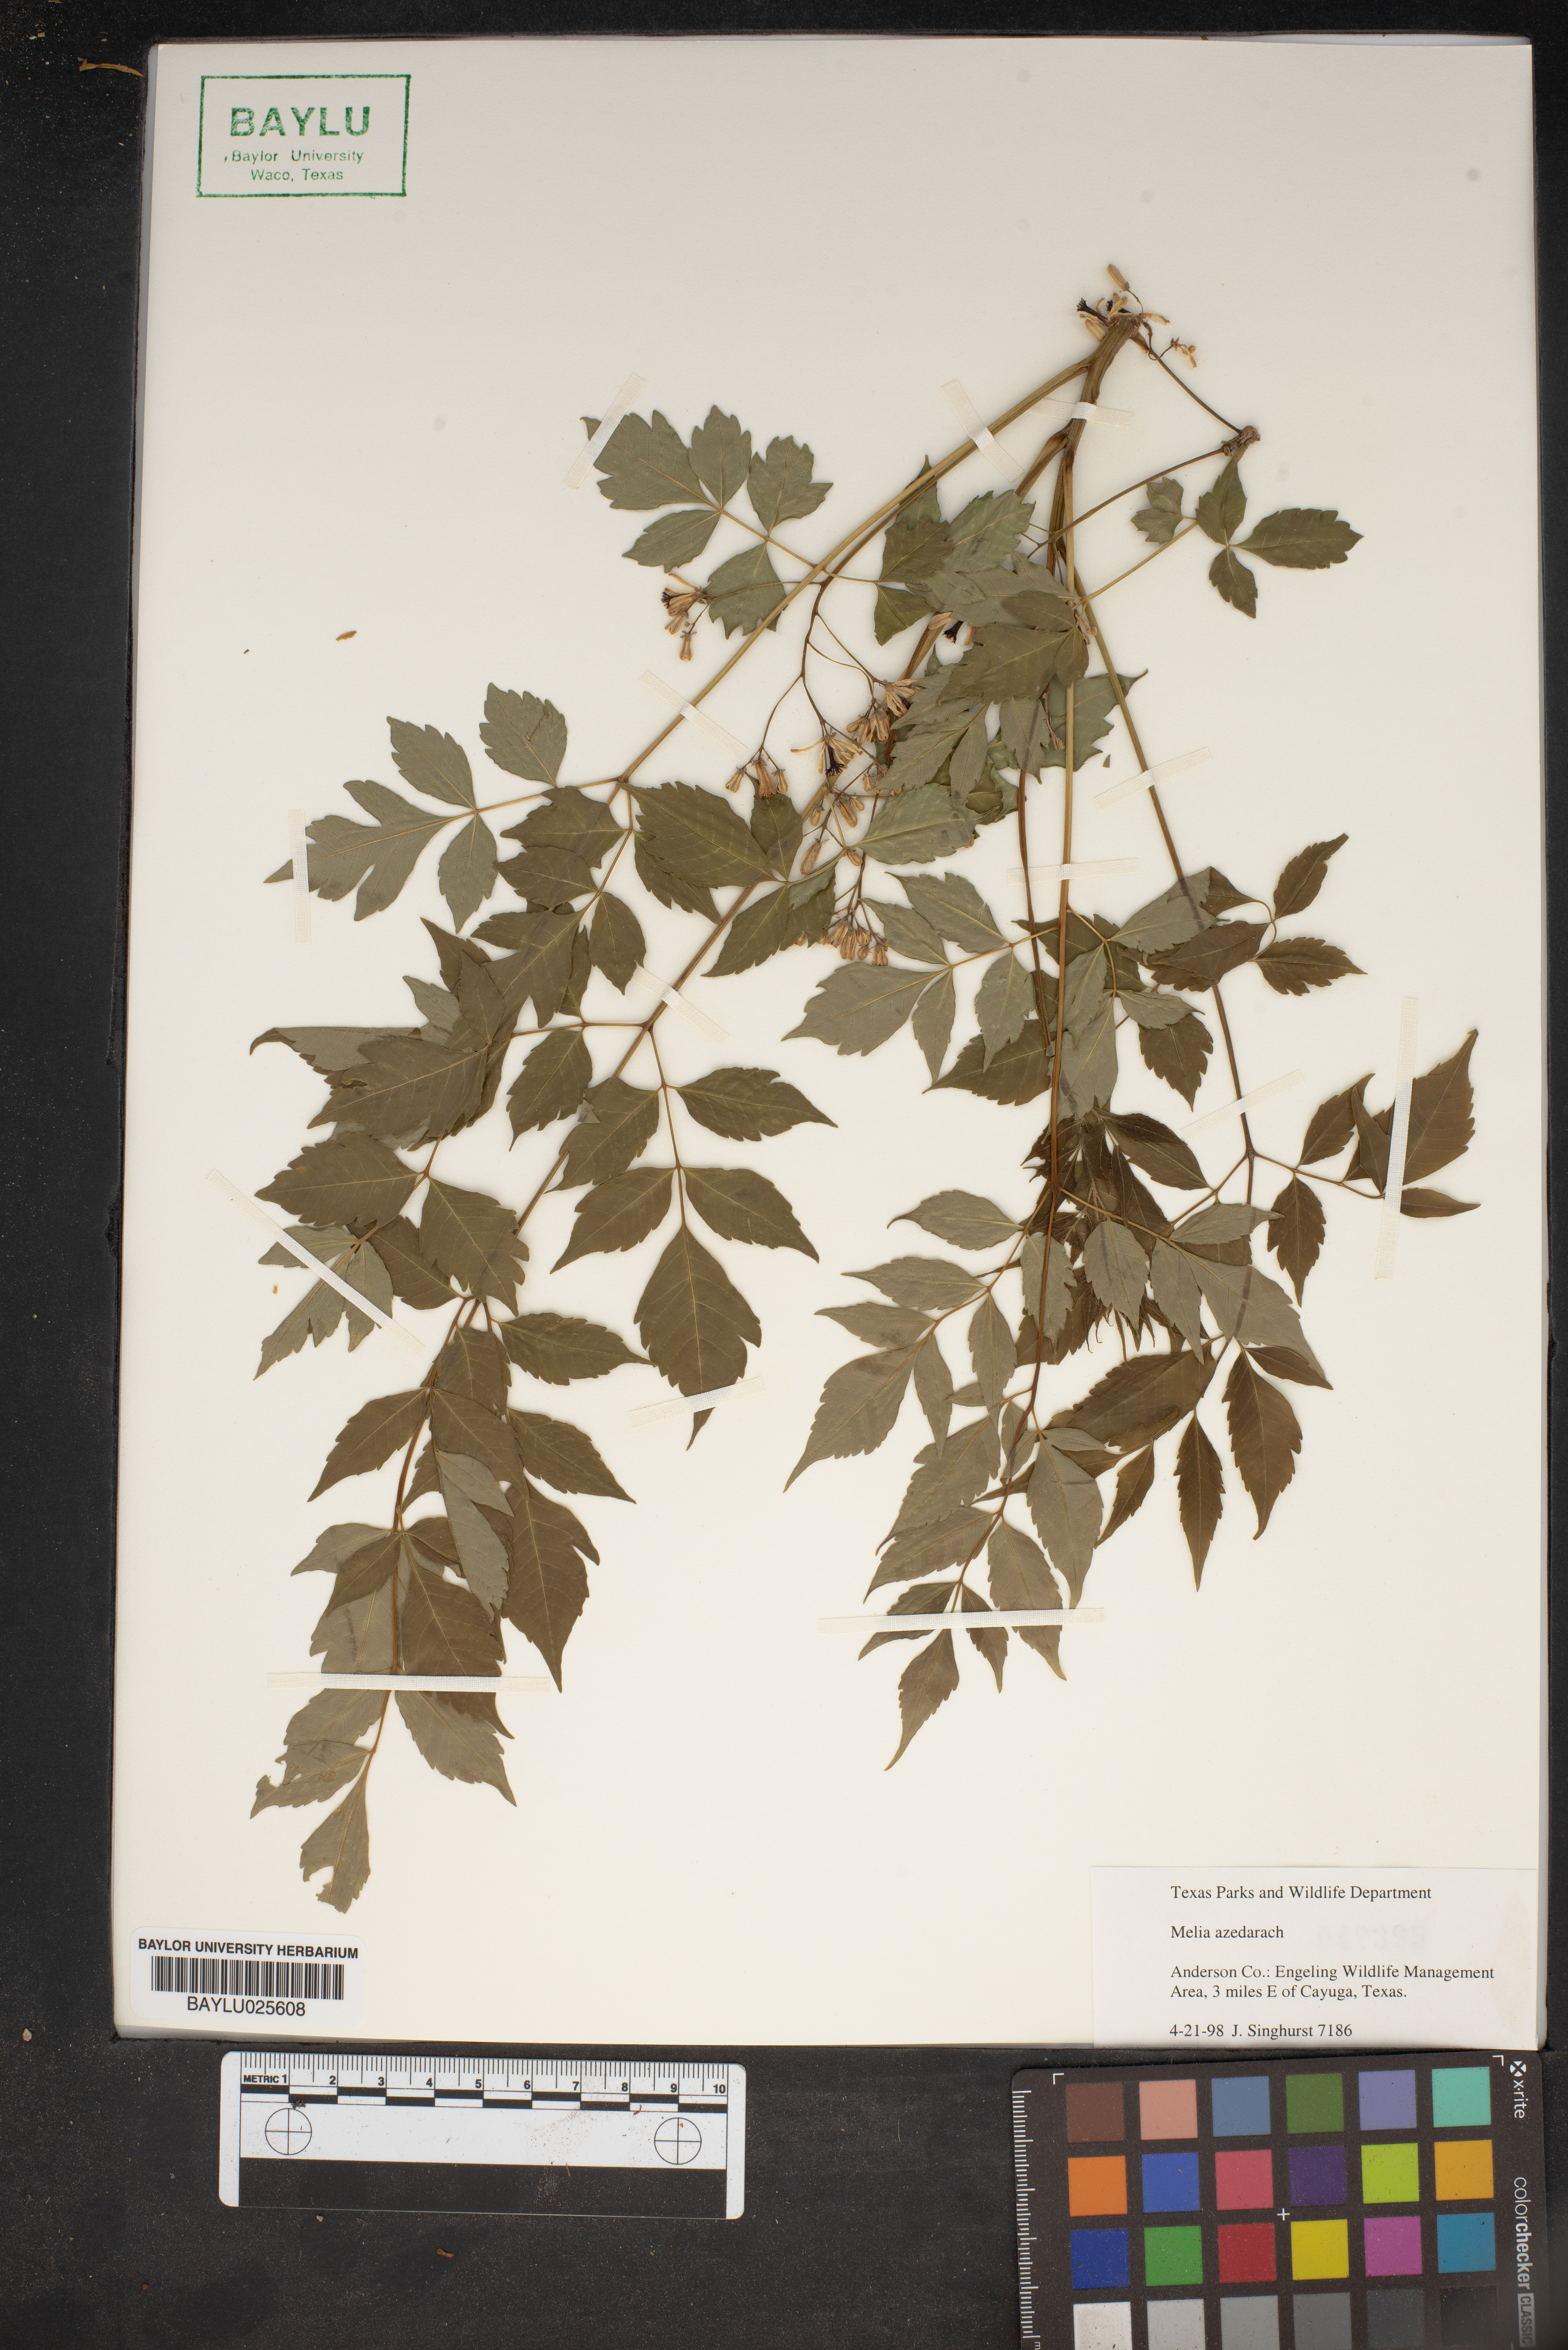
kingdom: Plantae
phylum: Tracheophyta
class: Magnoliopsida
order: Sapindales
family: Meliaceae
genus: Melia
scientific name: Melia azedarach
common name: Chinaberrytree
